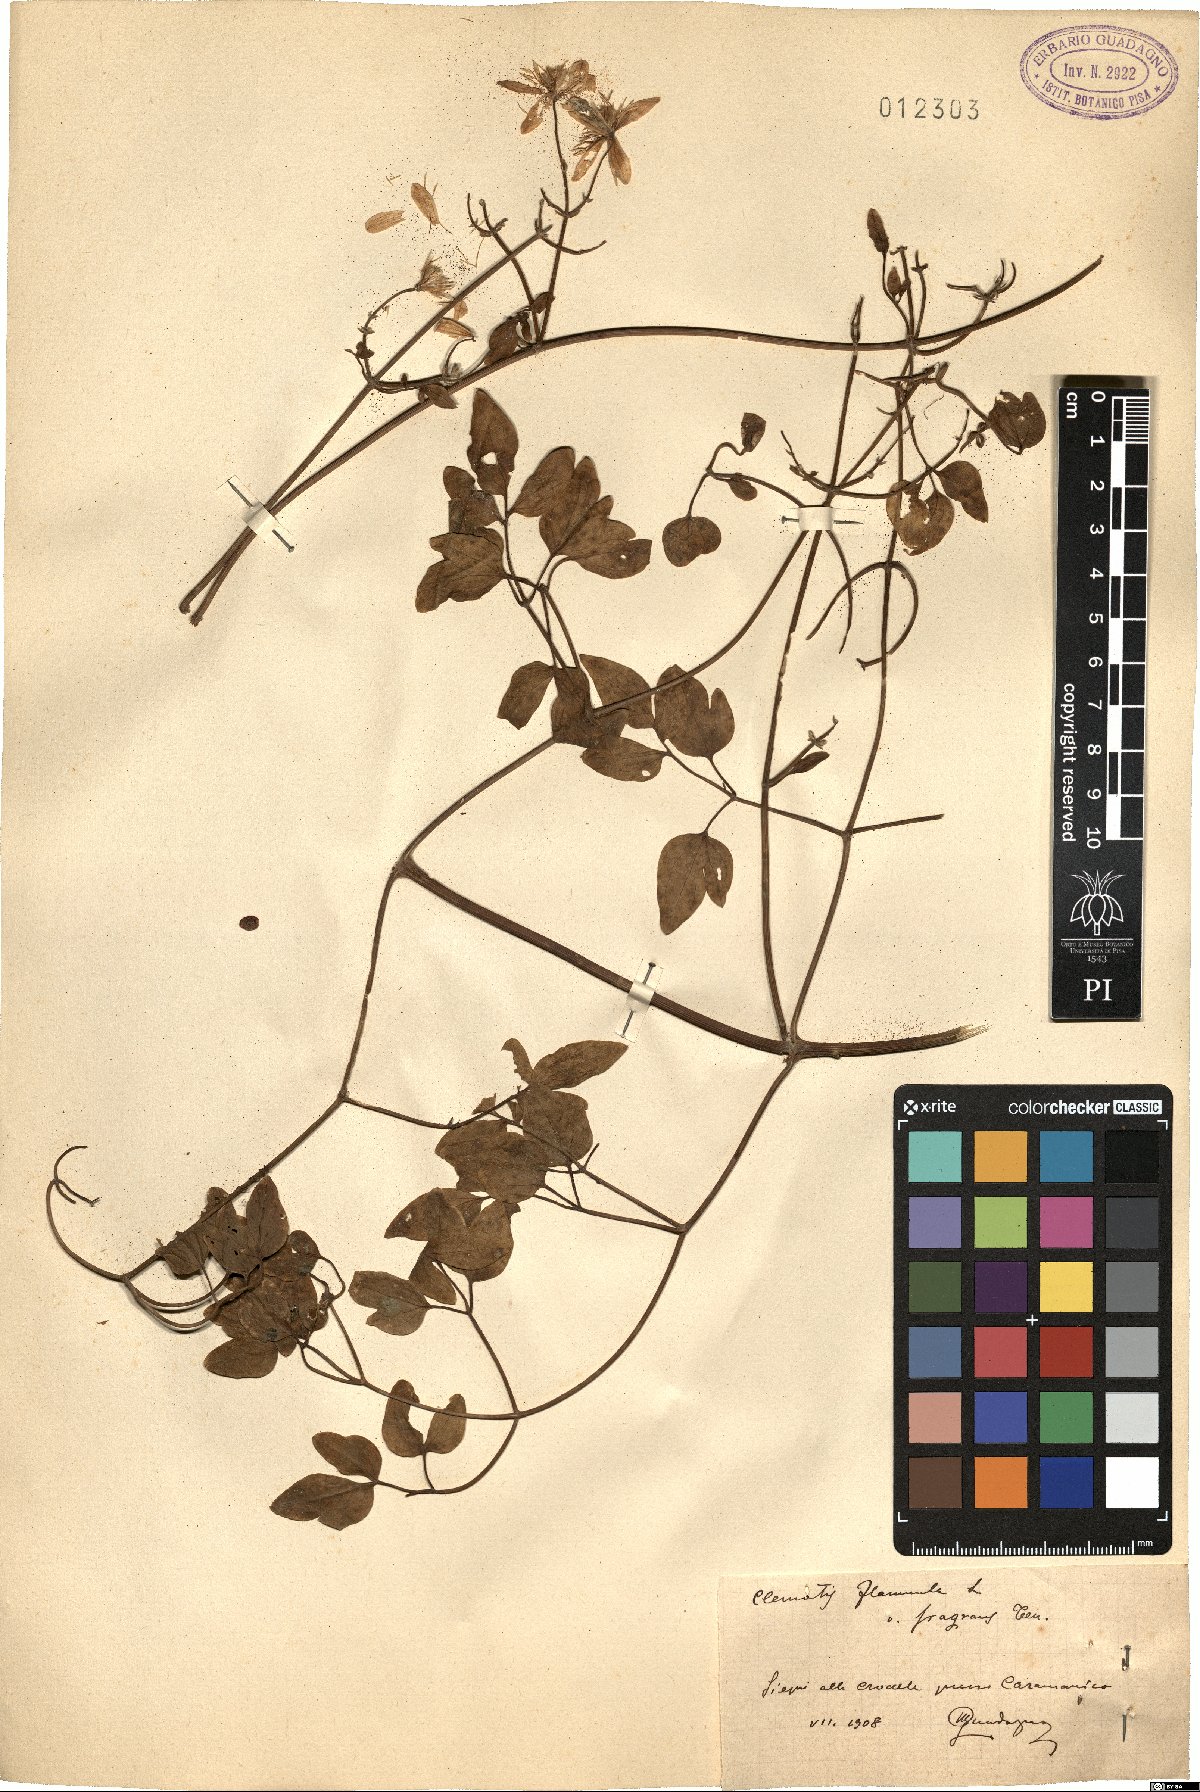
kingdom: Plantae
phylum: Tracheophyta
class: Magnoliopsida
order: Ranunculales
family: Ranunculaceae
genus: Clematis
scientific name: Clematis flammula
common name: Virgin's-bower
